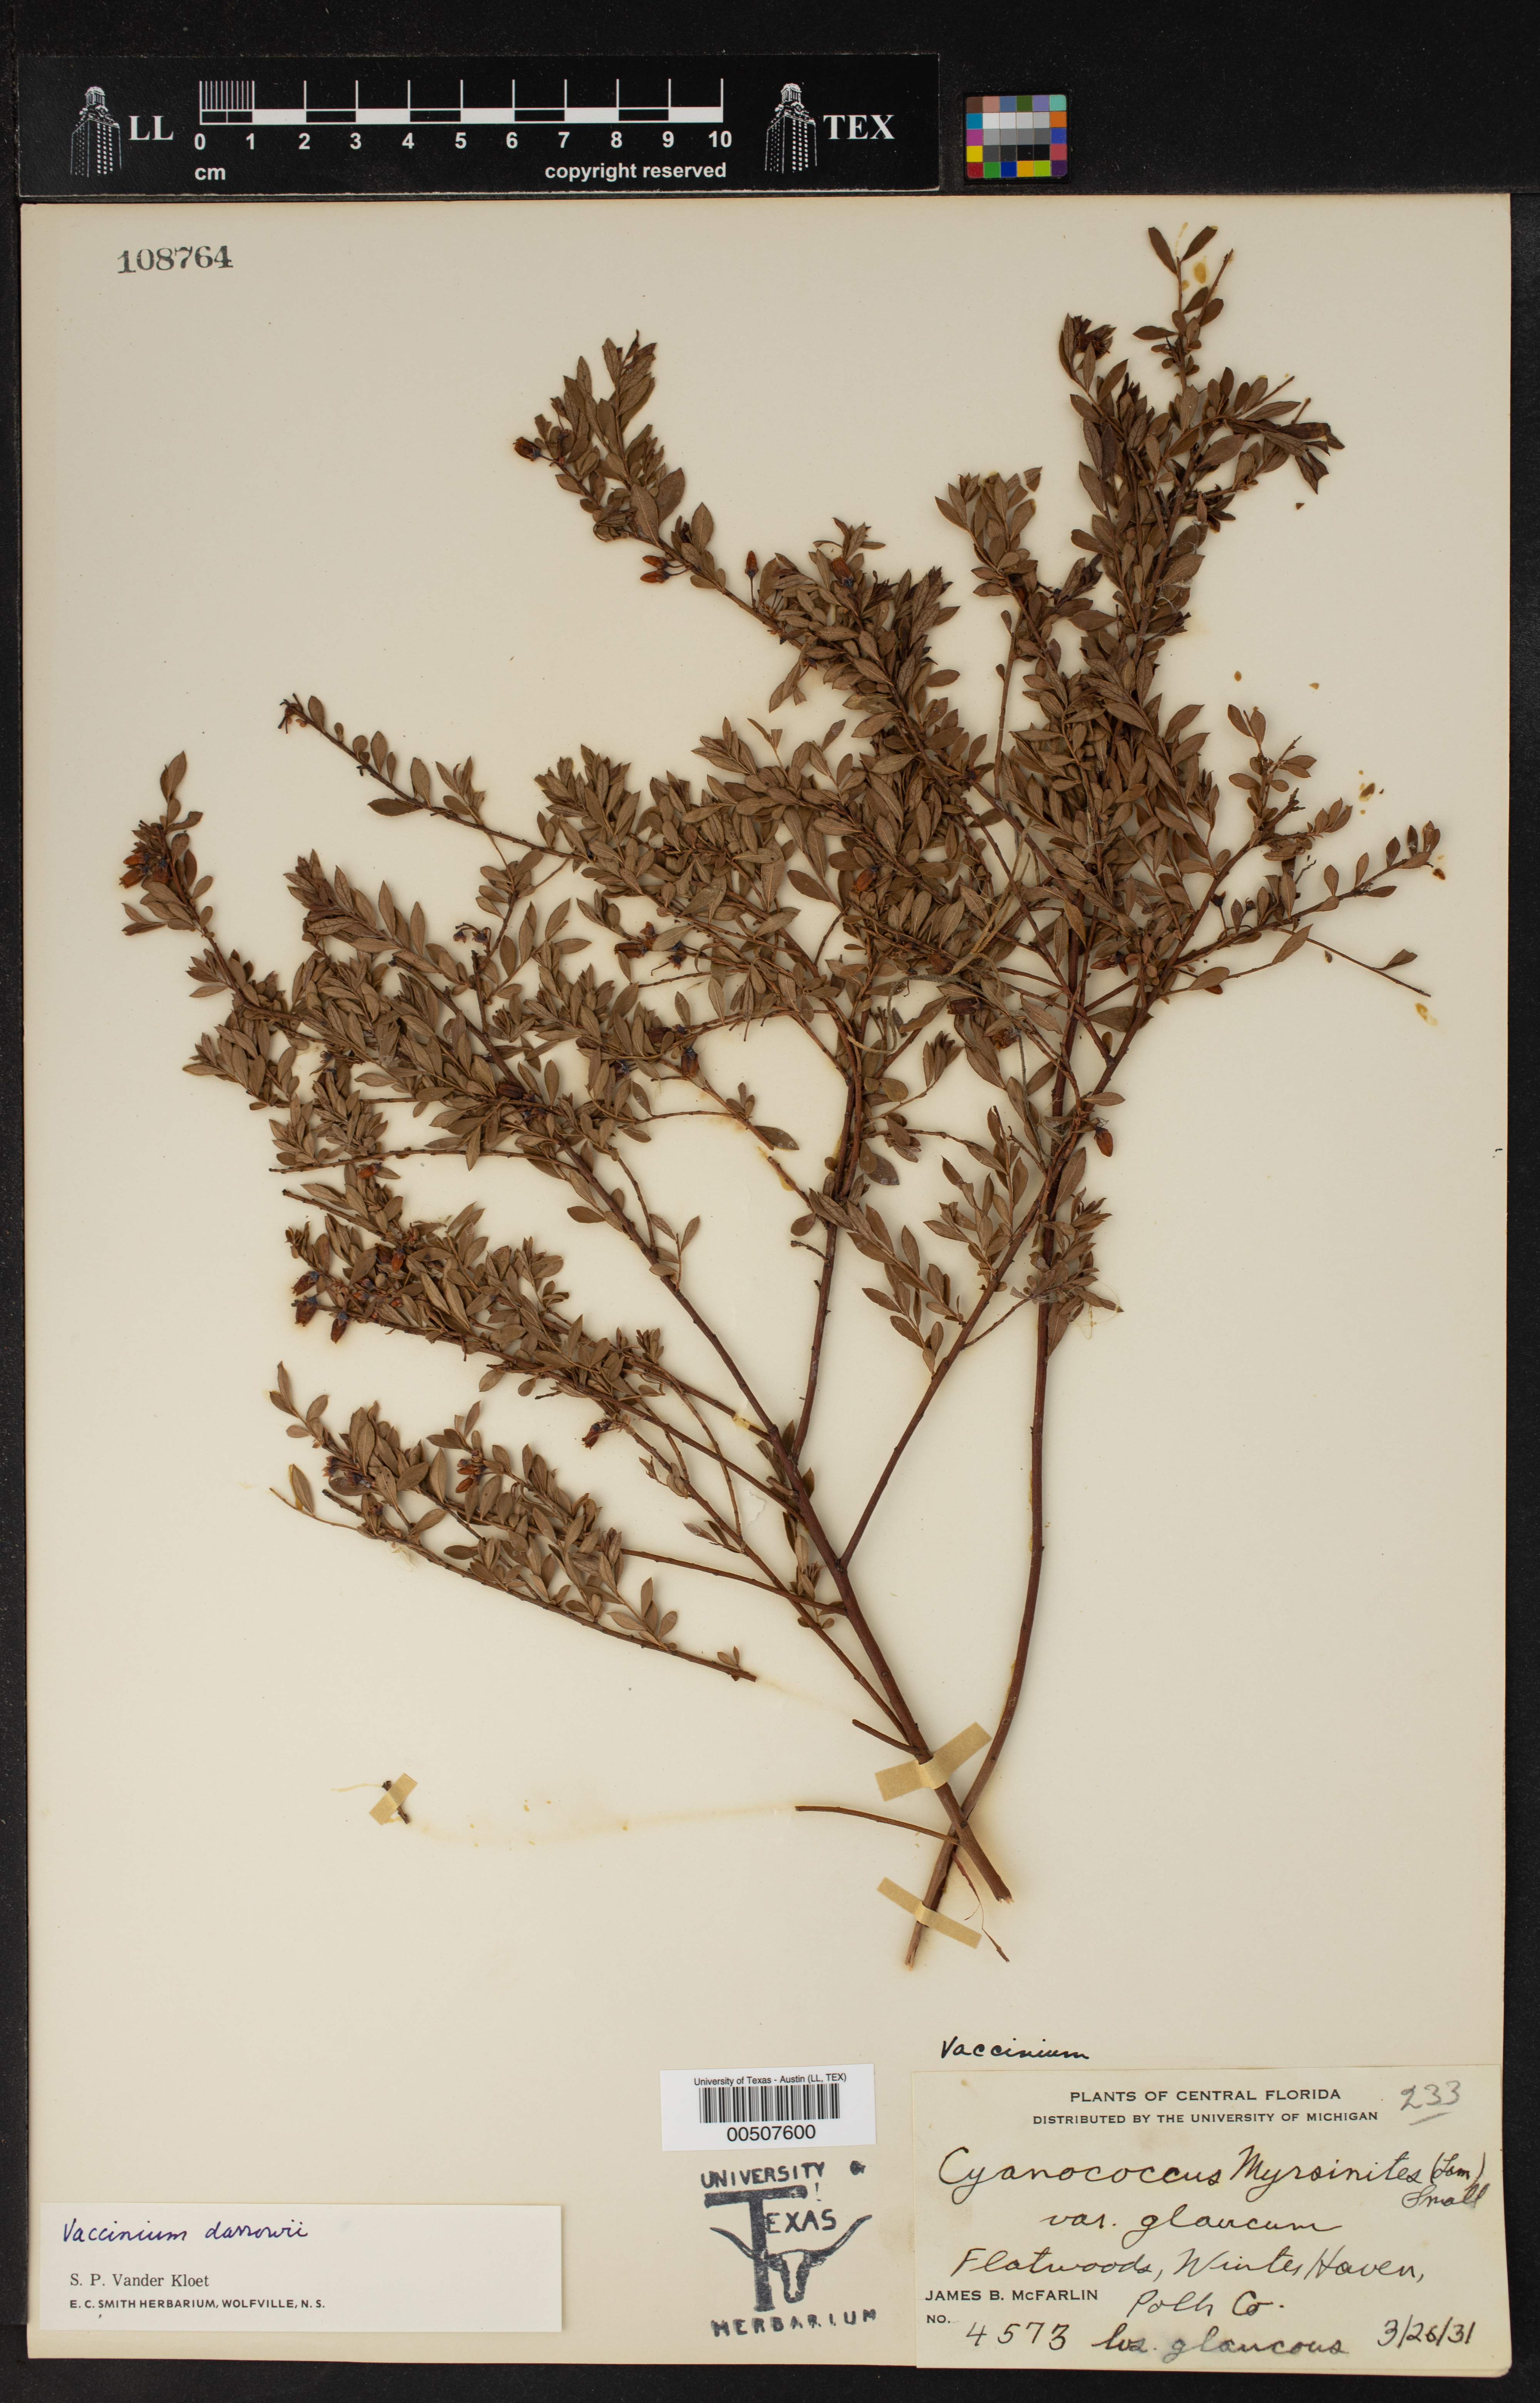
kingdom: Plantae
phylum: Tracheophyta
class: Magnoliopsida
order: Ericales
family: Ericaceae
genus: Vaccinium
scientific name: Vaccinium darrowii
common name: Darrow's blueberry
